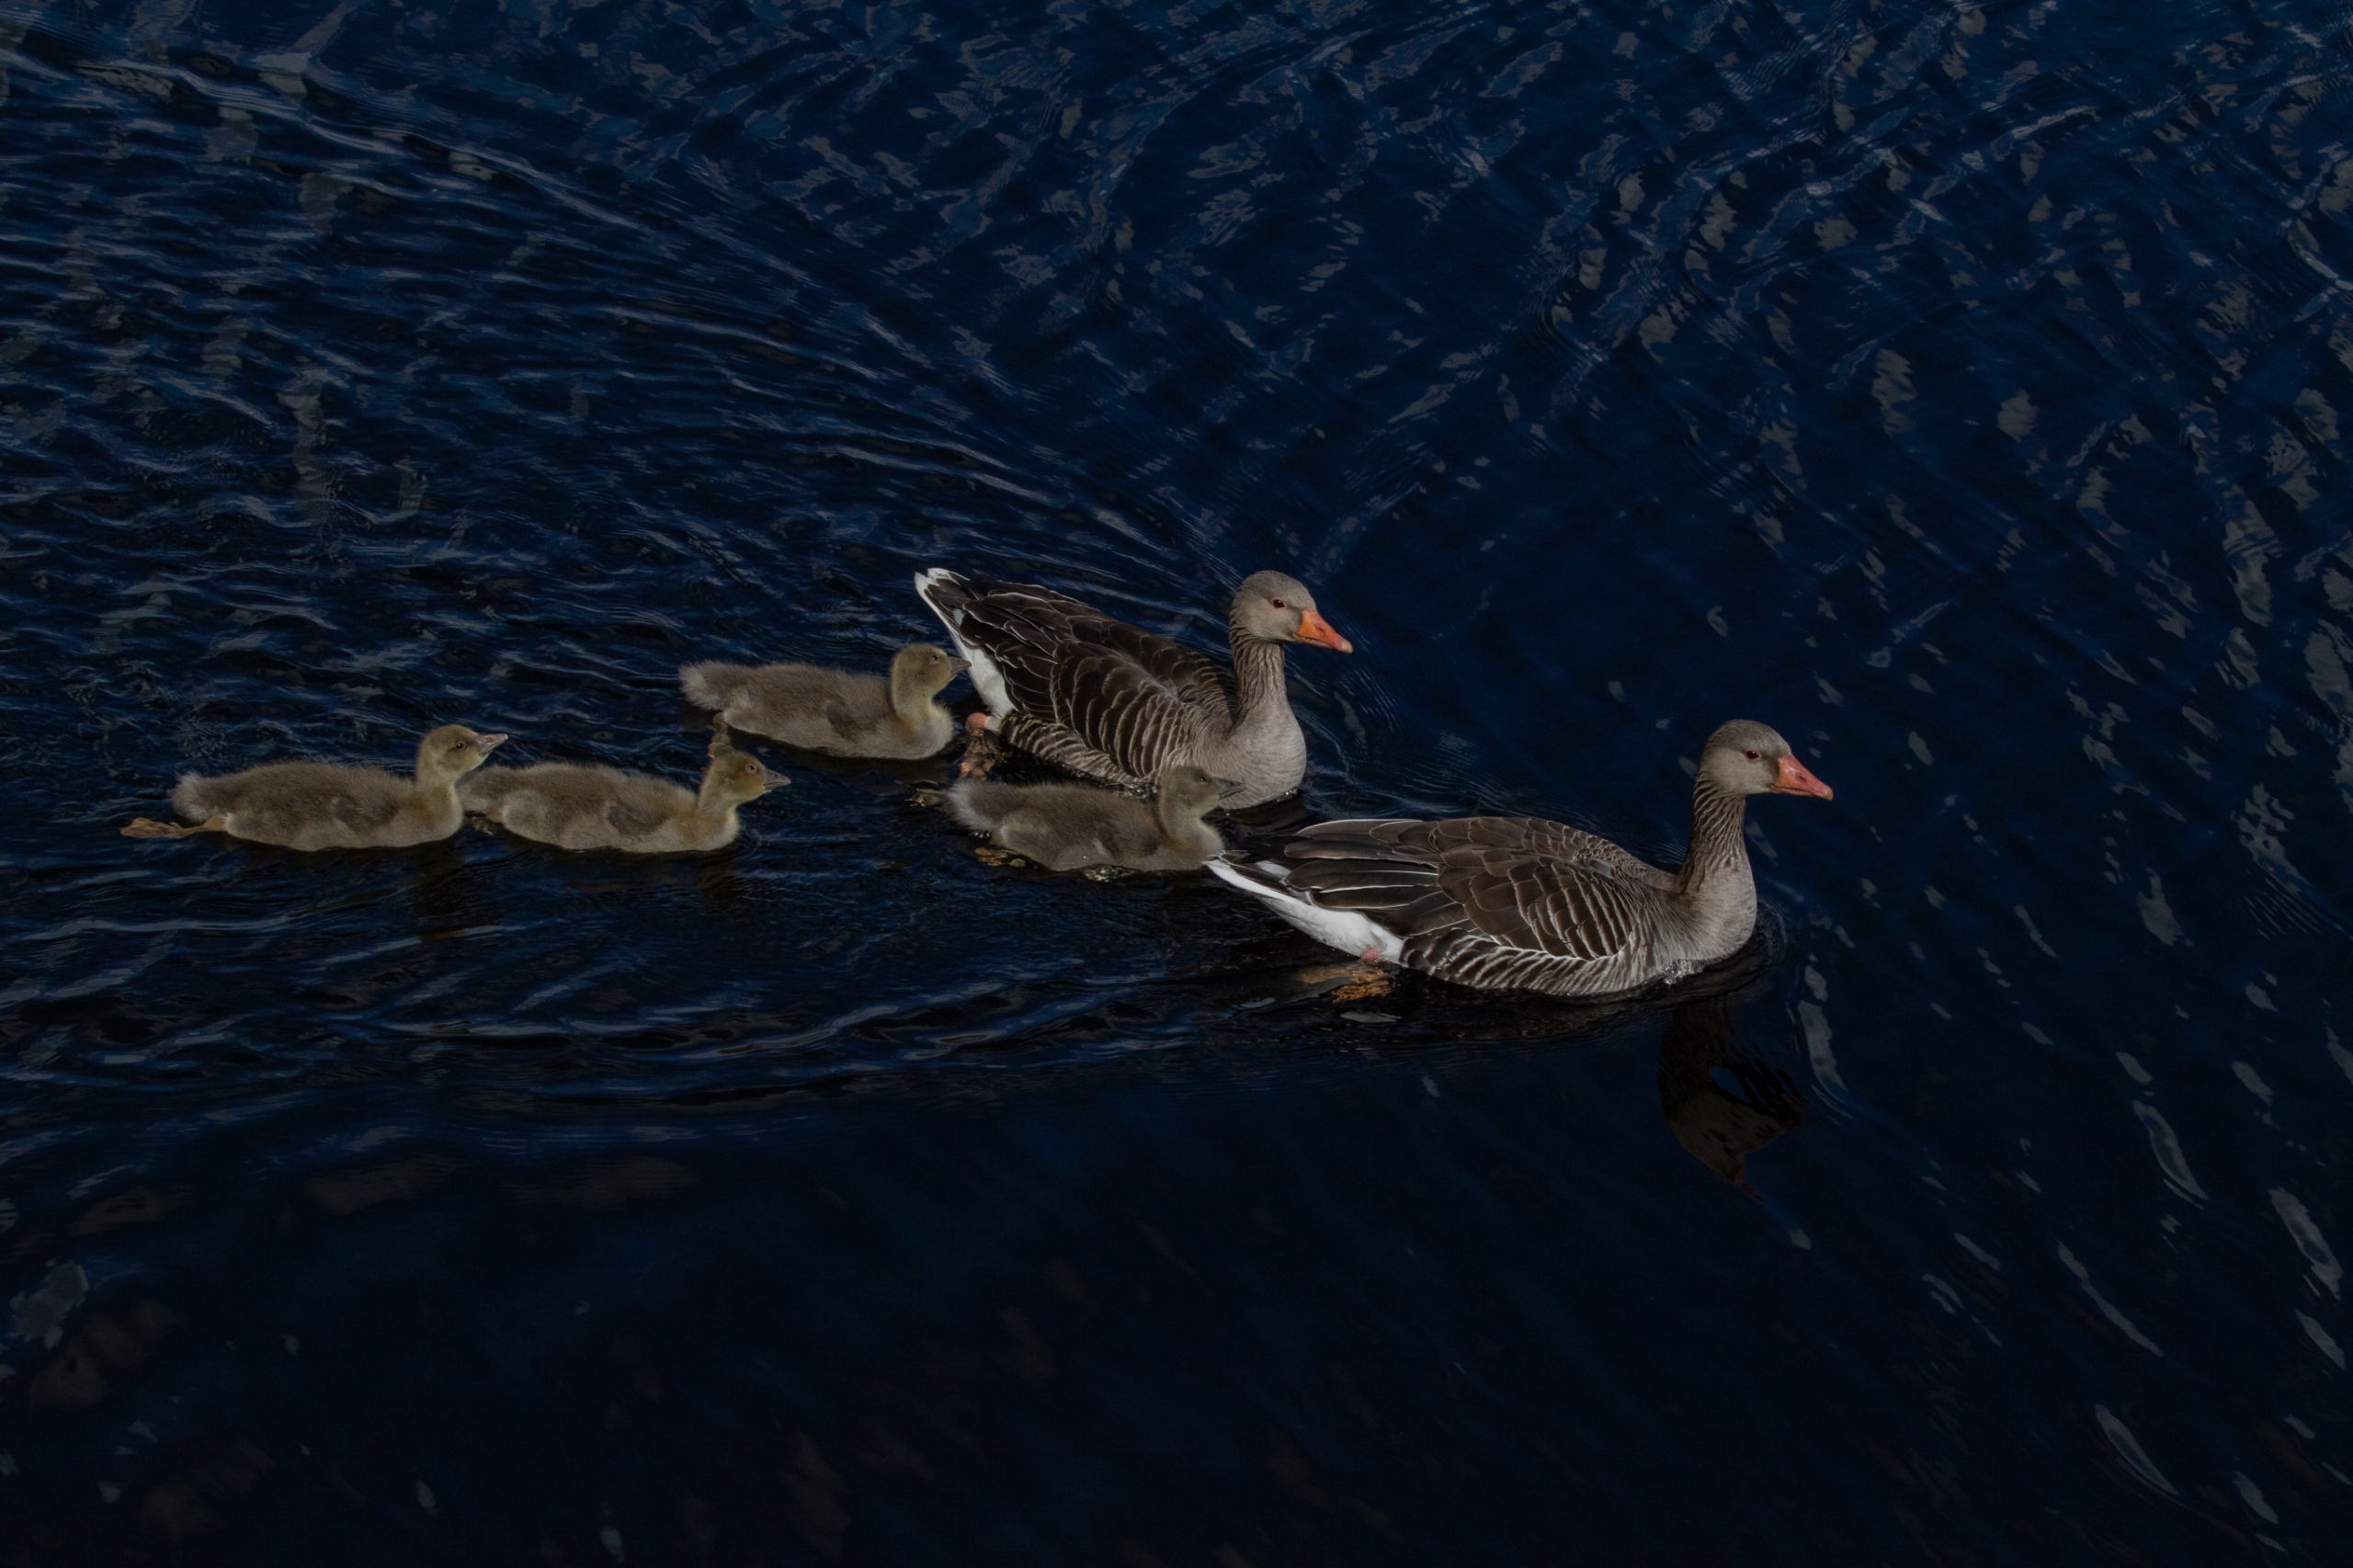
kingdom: Animalia
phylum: Chordata
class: Aves
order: Anseriformes
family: Anatidae
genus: Anser
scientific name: Anser anser
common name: Grågås
